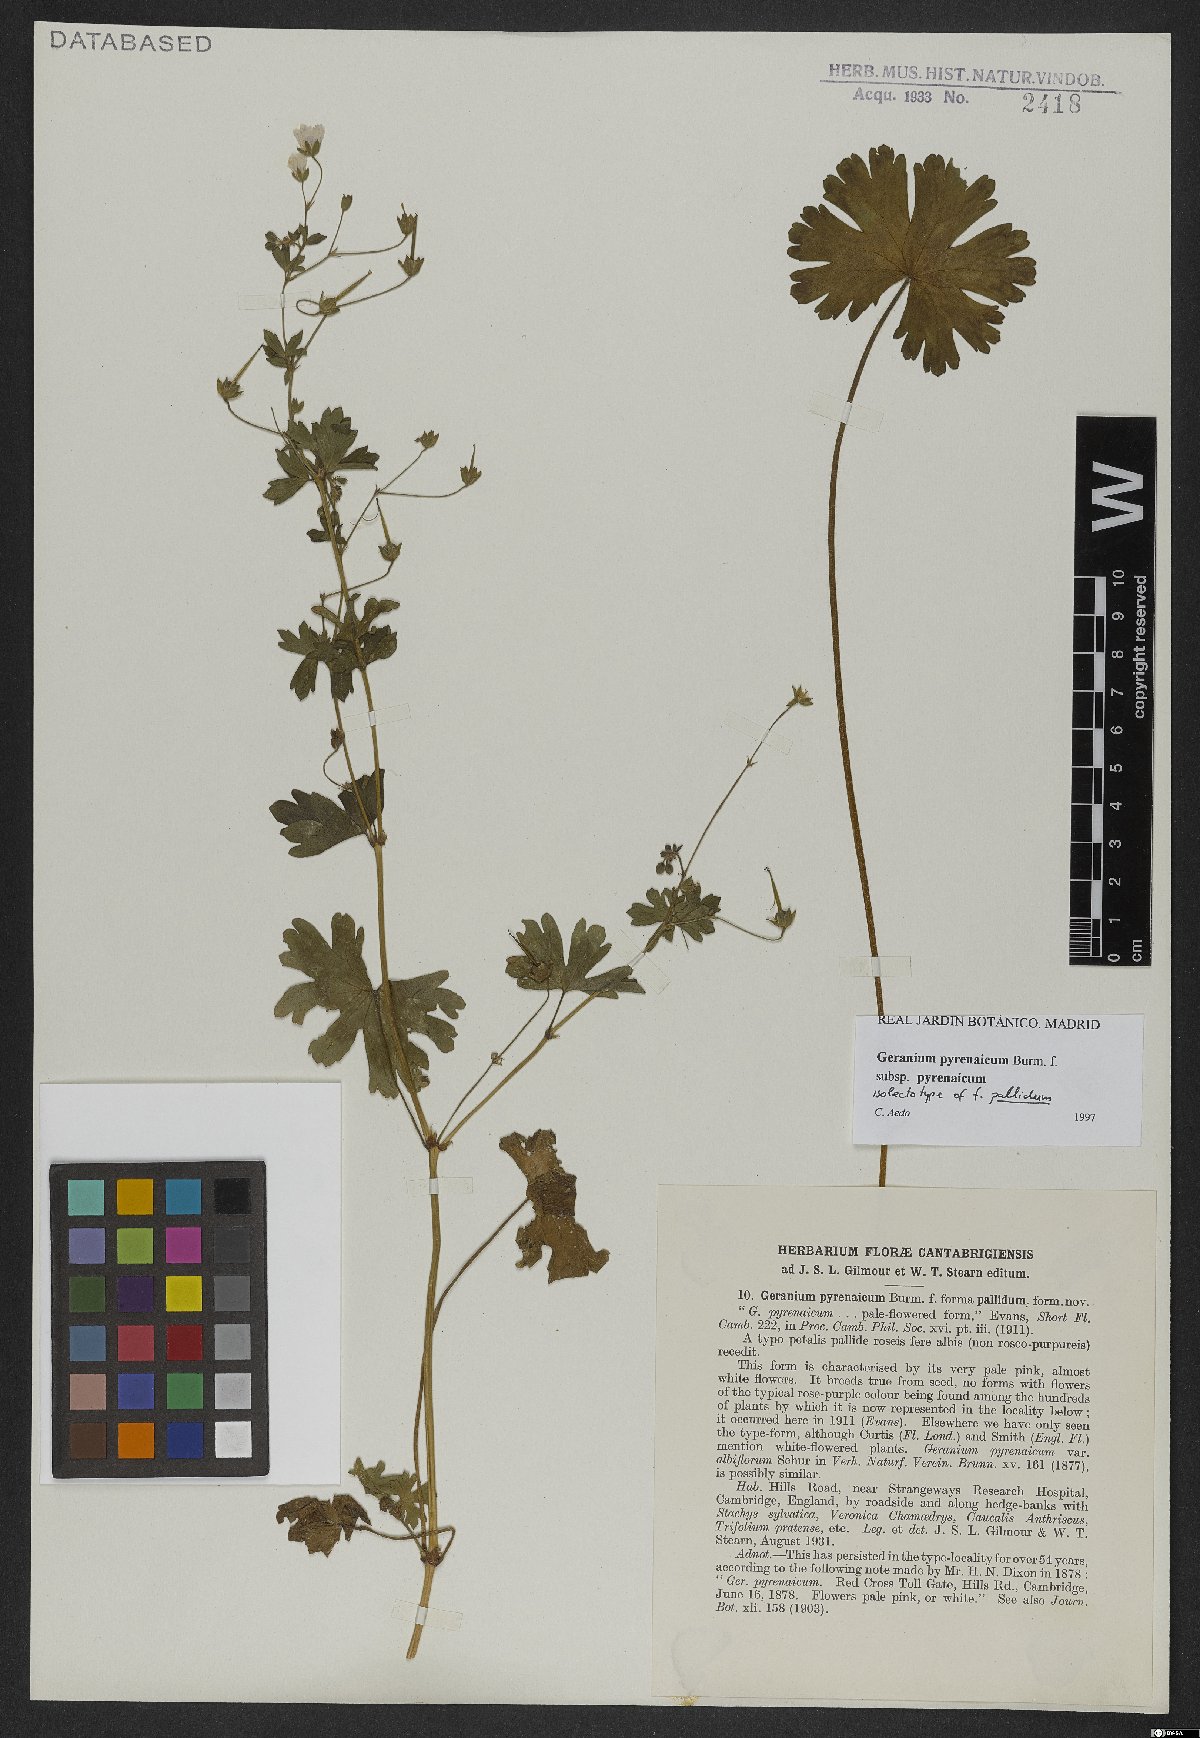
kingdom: Plantae
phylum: Tracheophyta
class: Magnoliopsida
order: Geraniales
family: Geraniaceae
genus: Geranium
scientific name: Geranium pyrenaicum
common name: Hedgerow crane's-bill
